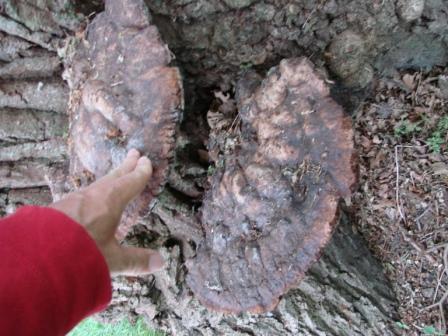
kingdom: Fungi
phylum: Basidiomycota
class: Agaricomycetes
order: Hymenochaetales
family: Hymenochaetaceae
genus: Pseudoinonotus
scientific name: Pseudoinonotus dryadeus
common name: ege-spejlporesvamp
